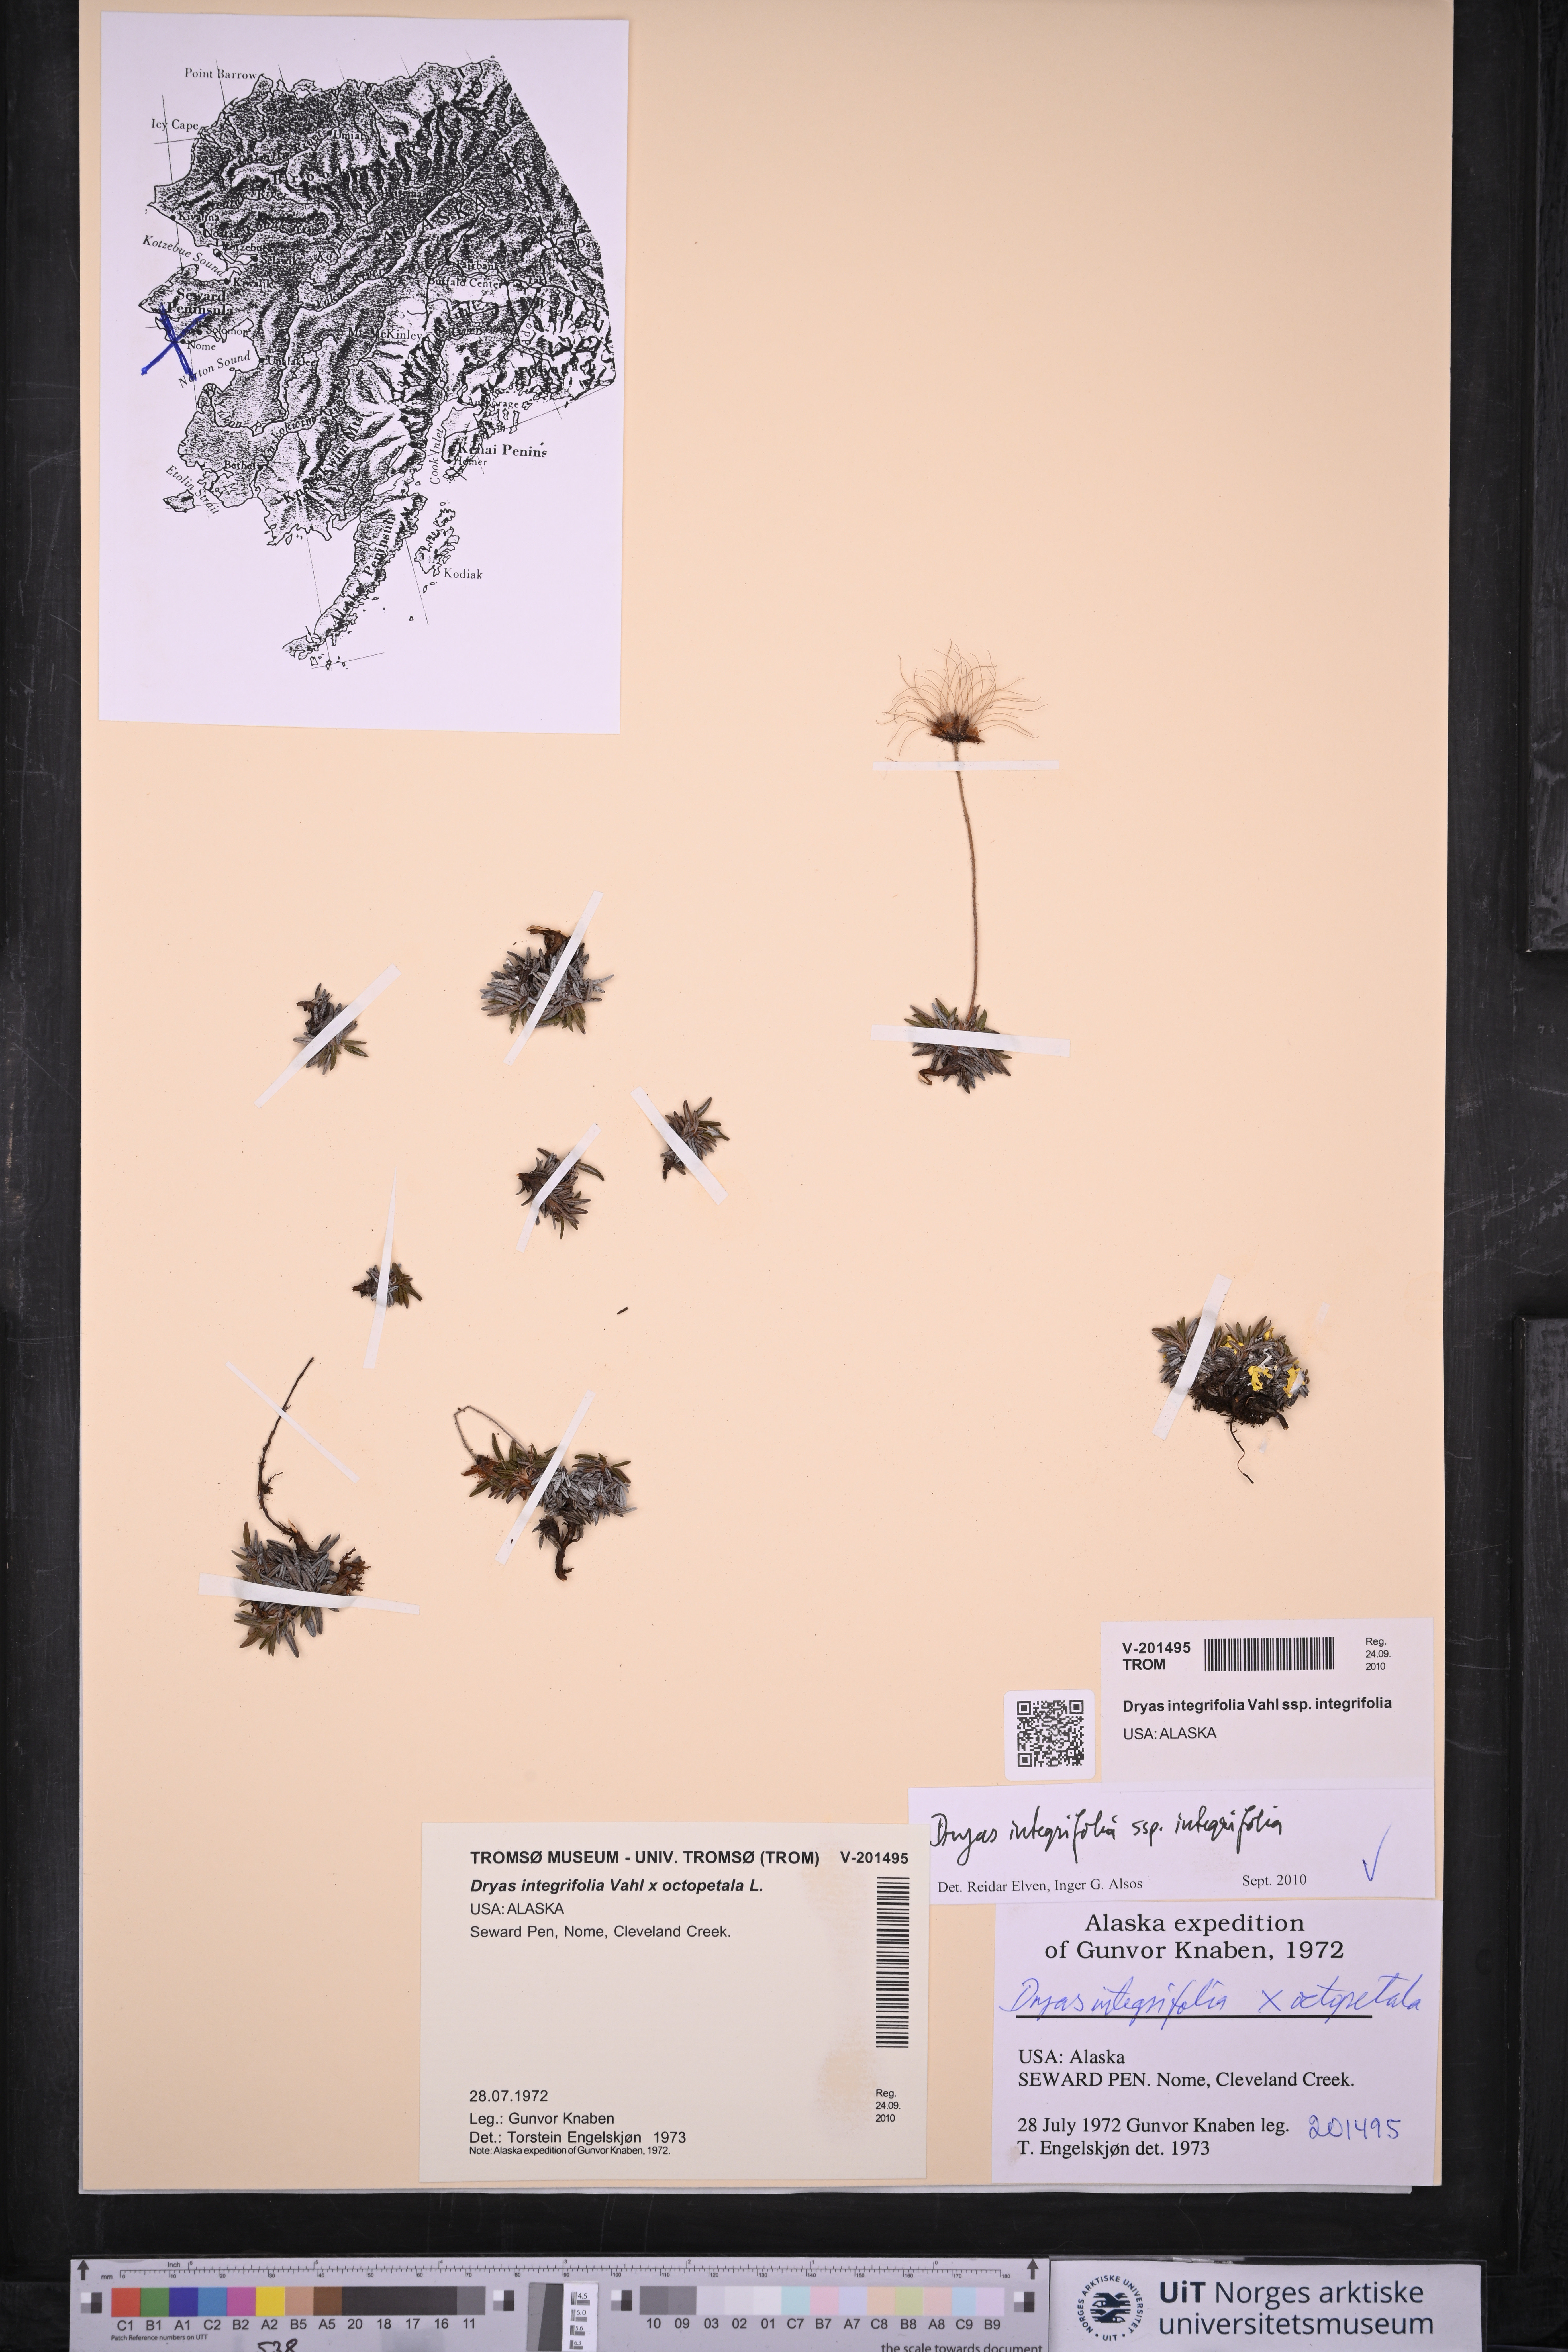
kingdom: Plantae
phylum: Tracheophyta
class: Magnoliopsida
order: Rosales
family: Rosaceae
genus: Dryas
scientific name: Dryas integrifolia
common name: Entire-leaved mountain avens
